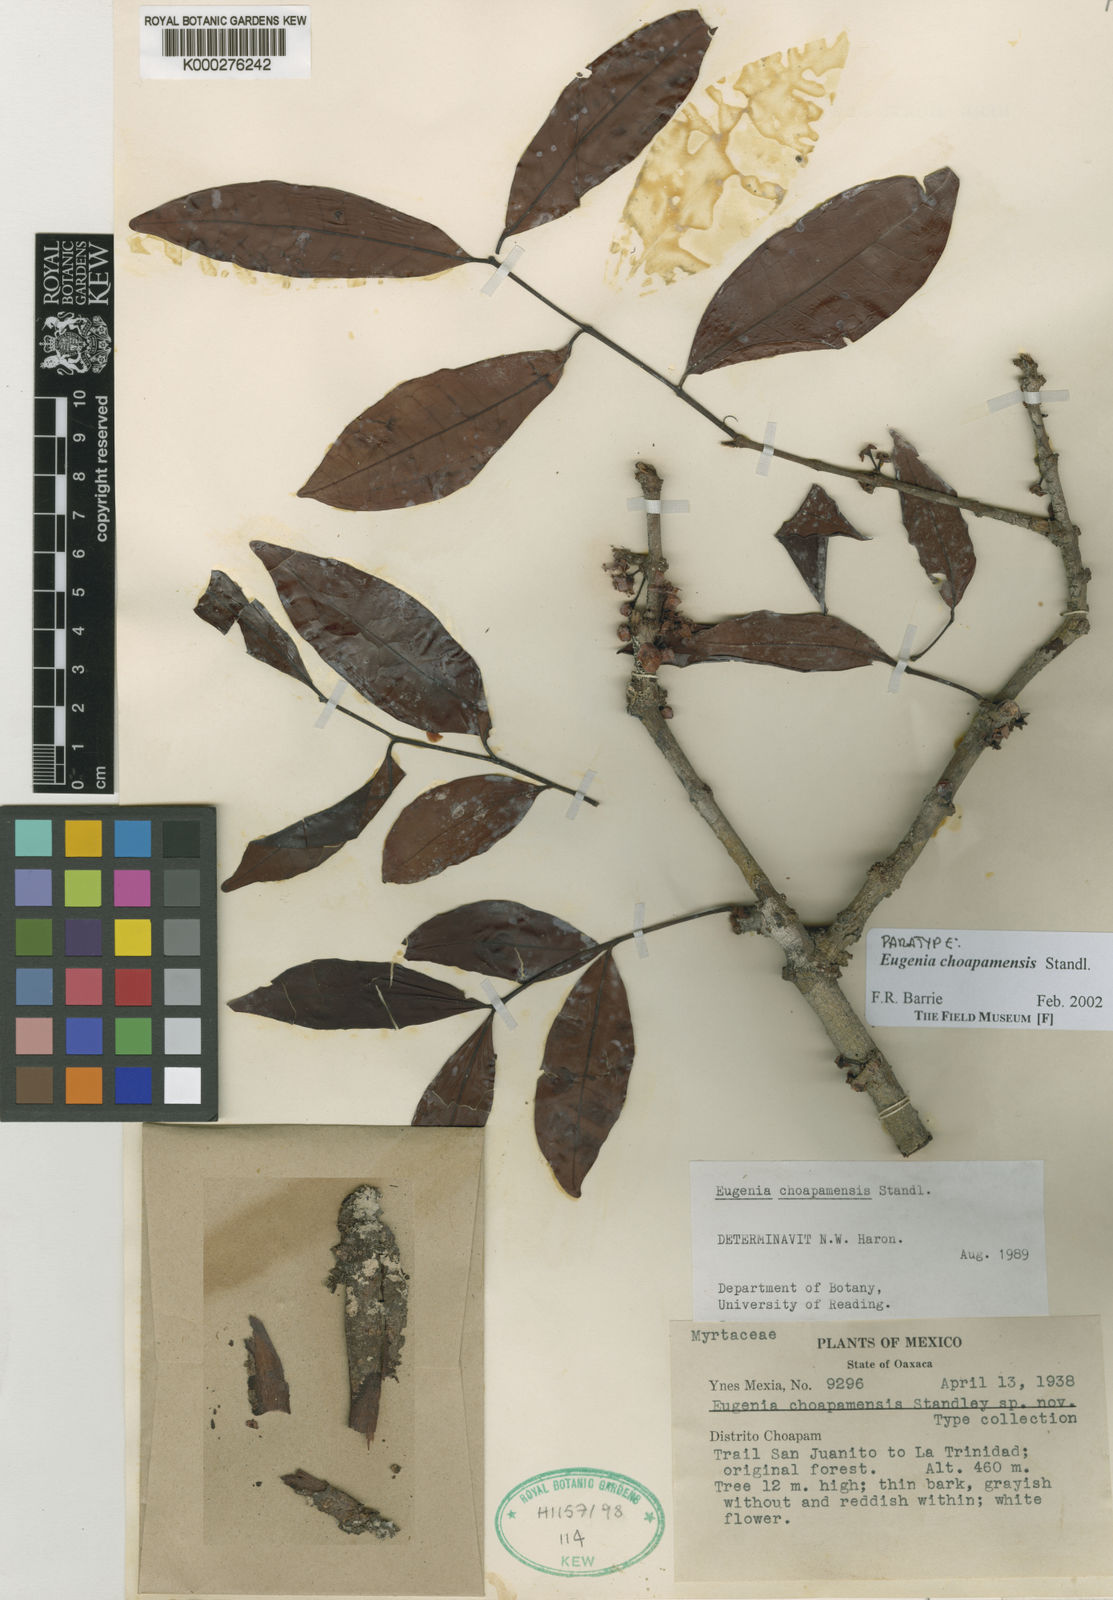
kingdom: Plantae
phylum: Tracheophyta
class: Magnoliopsida
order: Myrtales
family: Myrtaceae
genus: Eugenia
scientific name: Eugenia choapamensis
